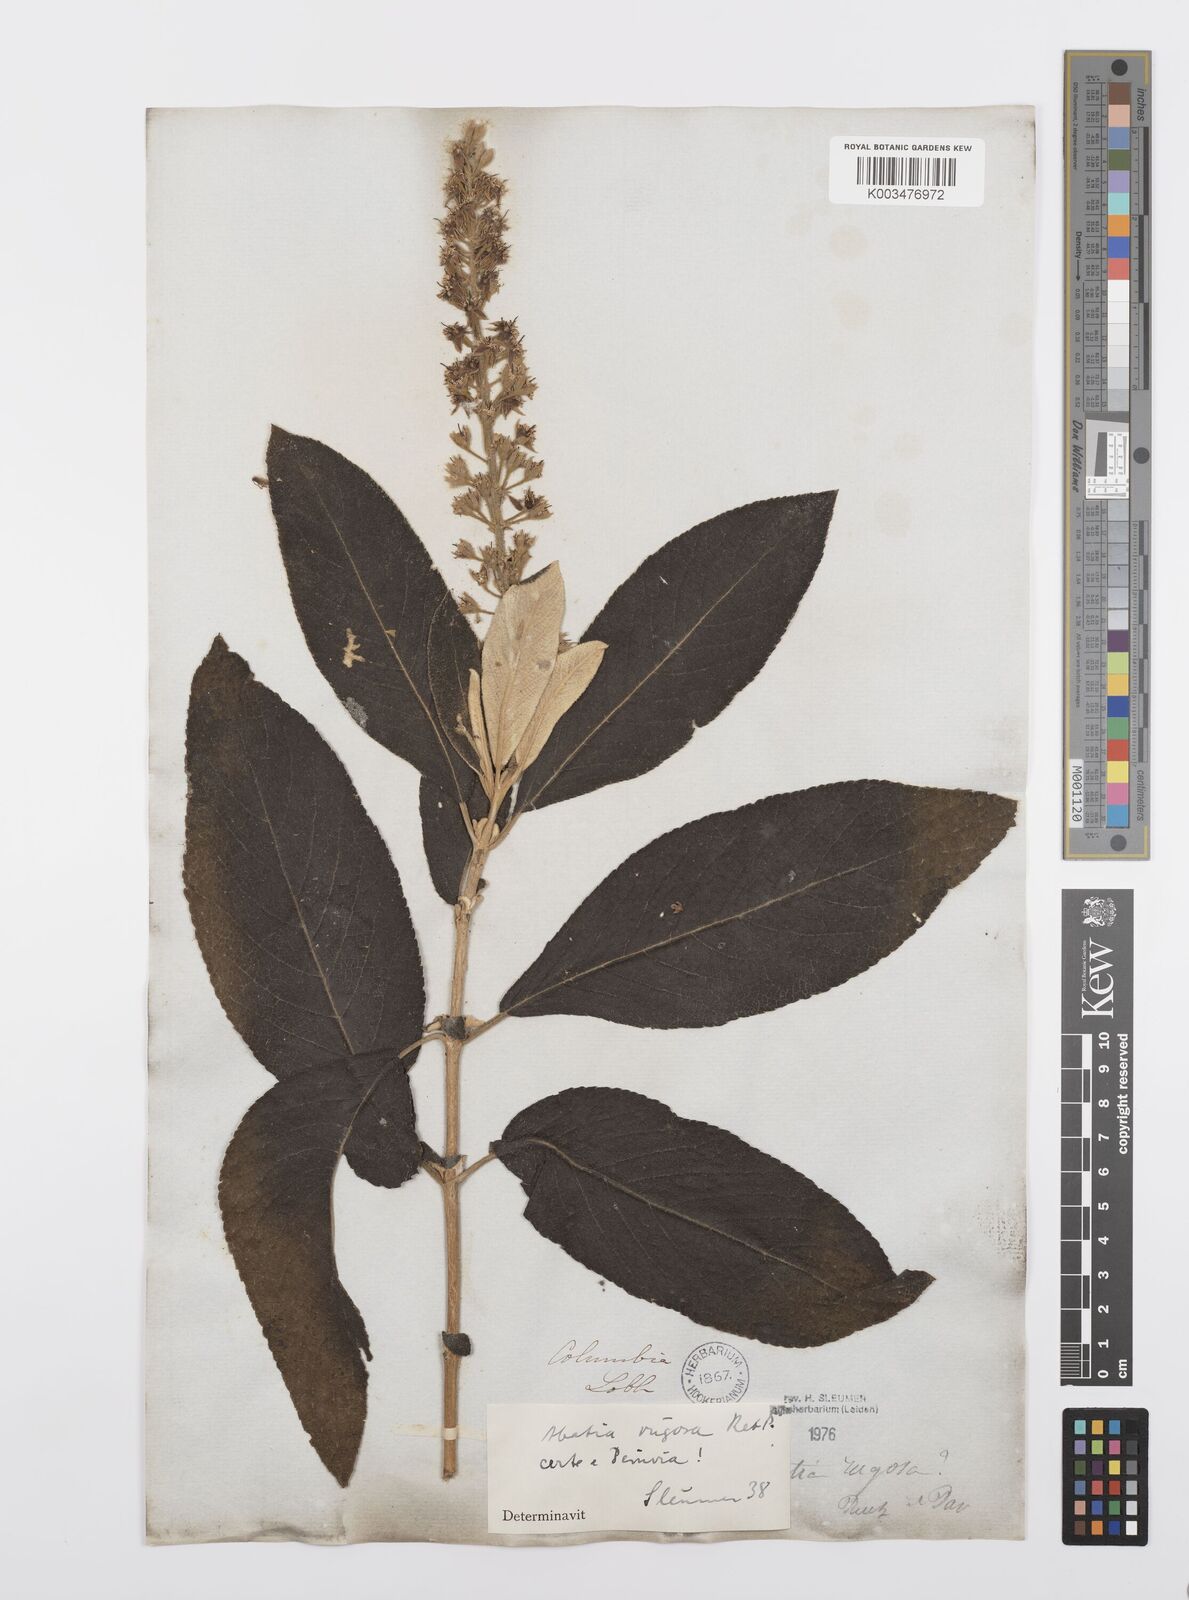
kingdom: Plantae
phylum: Tracheophyta
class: Magnoliopsida
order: Malpighiales
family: Salicaceae
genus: Abatia
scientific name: Abatia rugosa
